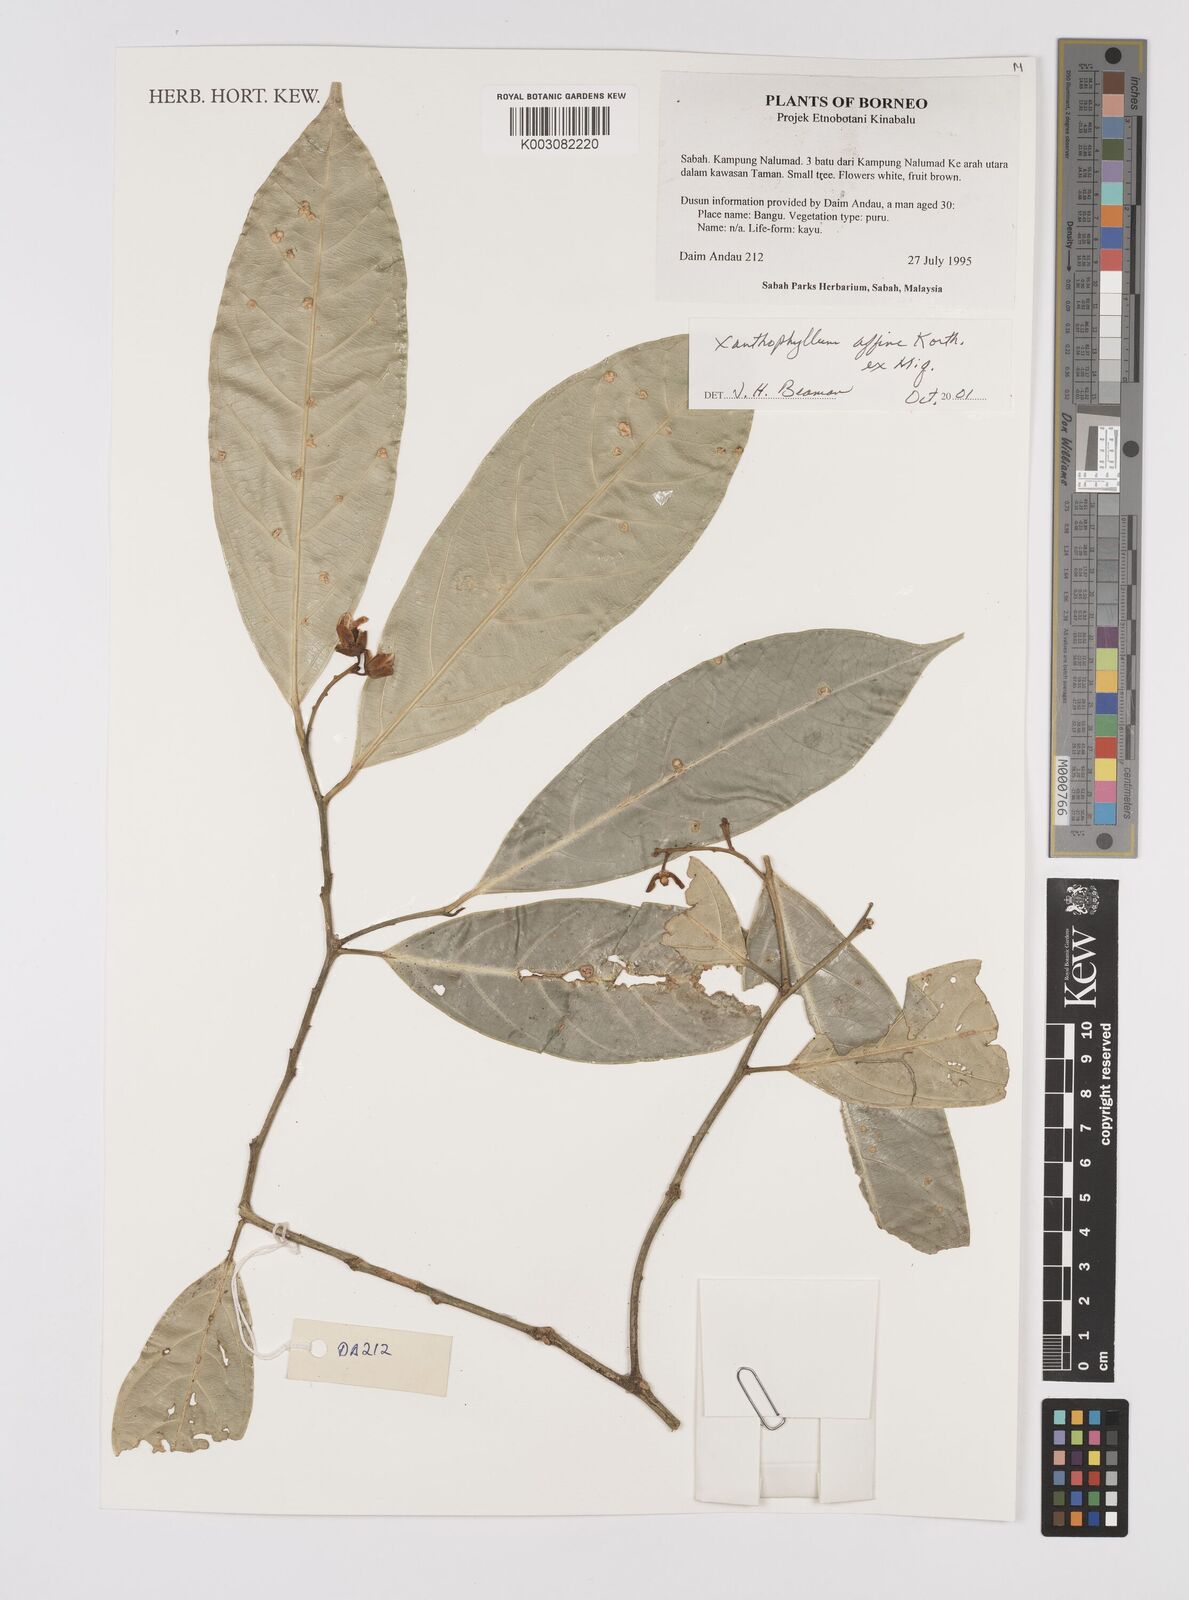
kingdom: Plantae
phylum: Tracheophyta
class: Magnoliopsida
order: Fabales
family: Polygalaceae
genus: Xanthophyllum
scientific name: Xanthophyllum flavescens
